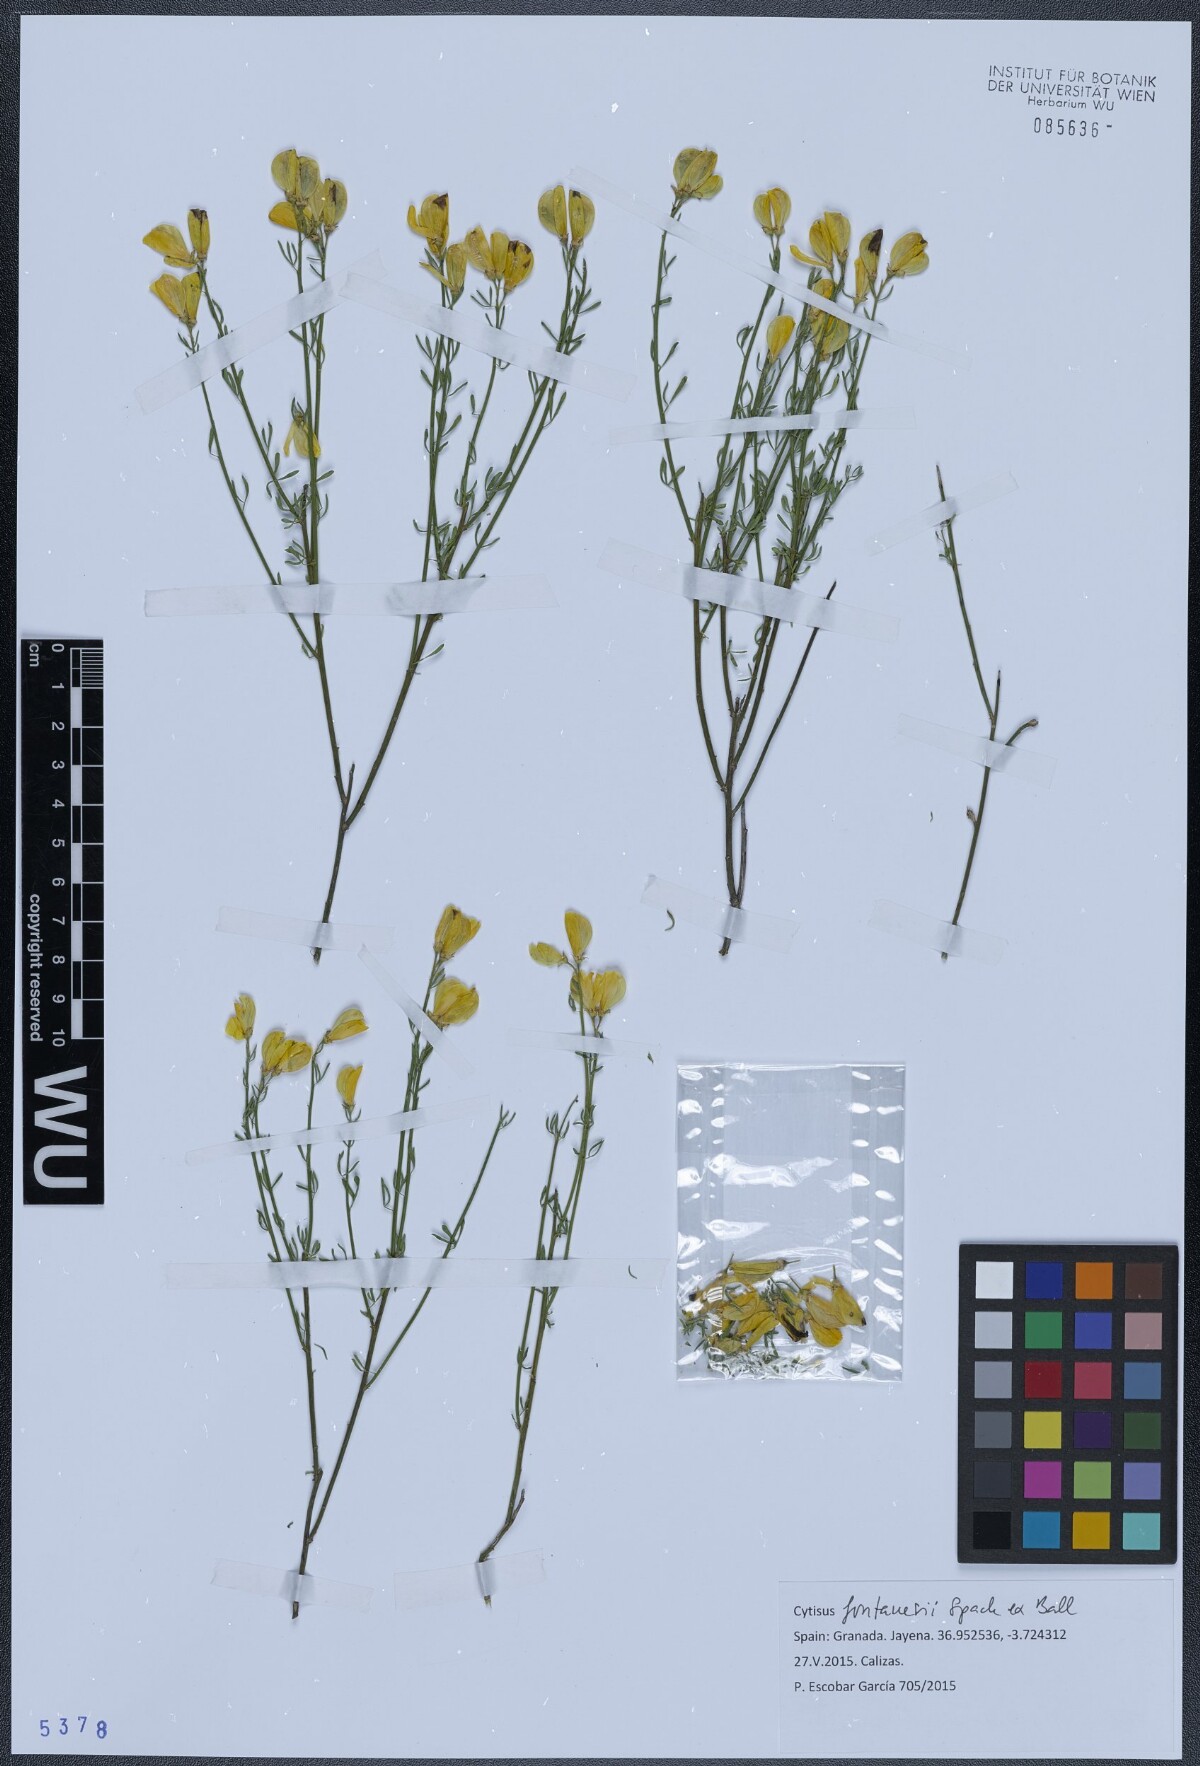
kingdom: Plantae
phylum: Tracheophyta
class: Magnoliopsida
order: Fabales
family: Fabaceae
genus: Cytisus
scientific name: Cytisus fontanesii
